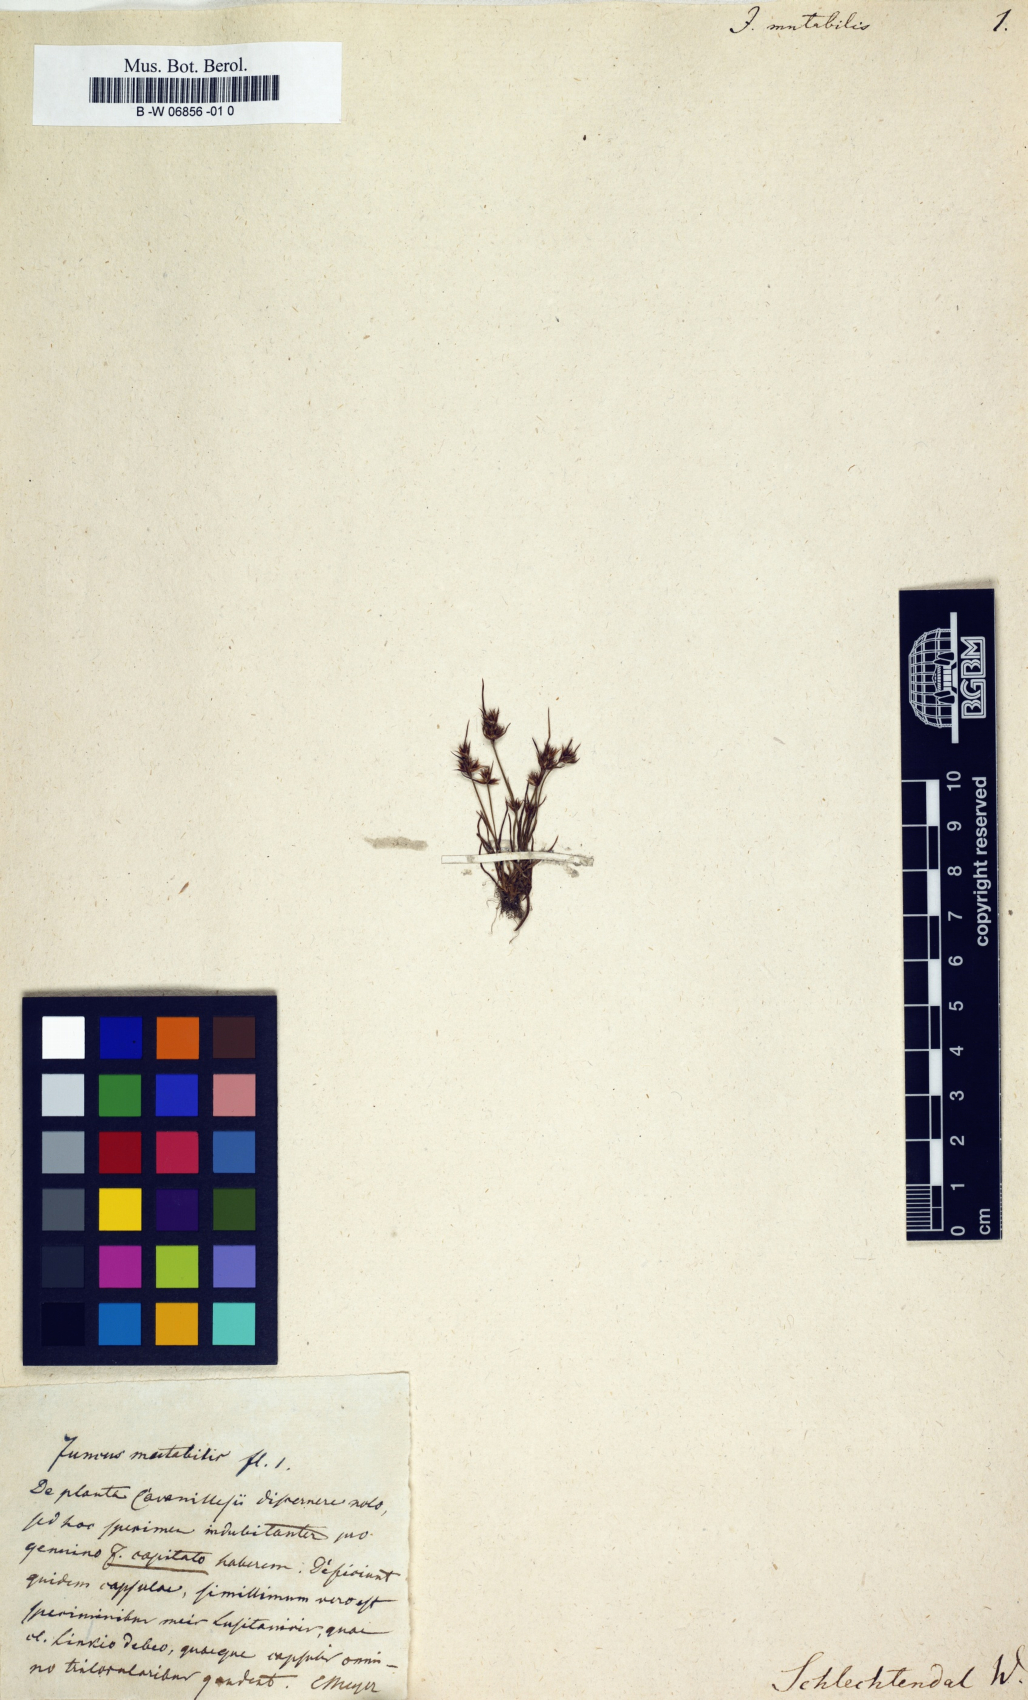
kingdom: Plantae
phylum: Tracheophyta
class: Liliopsida
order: Poales
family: Juncaceae
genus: Juncus
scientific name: Juncus
